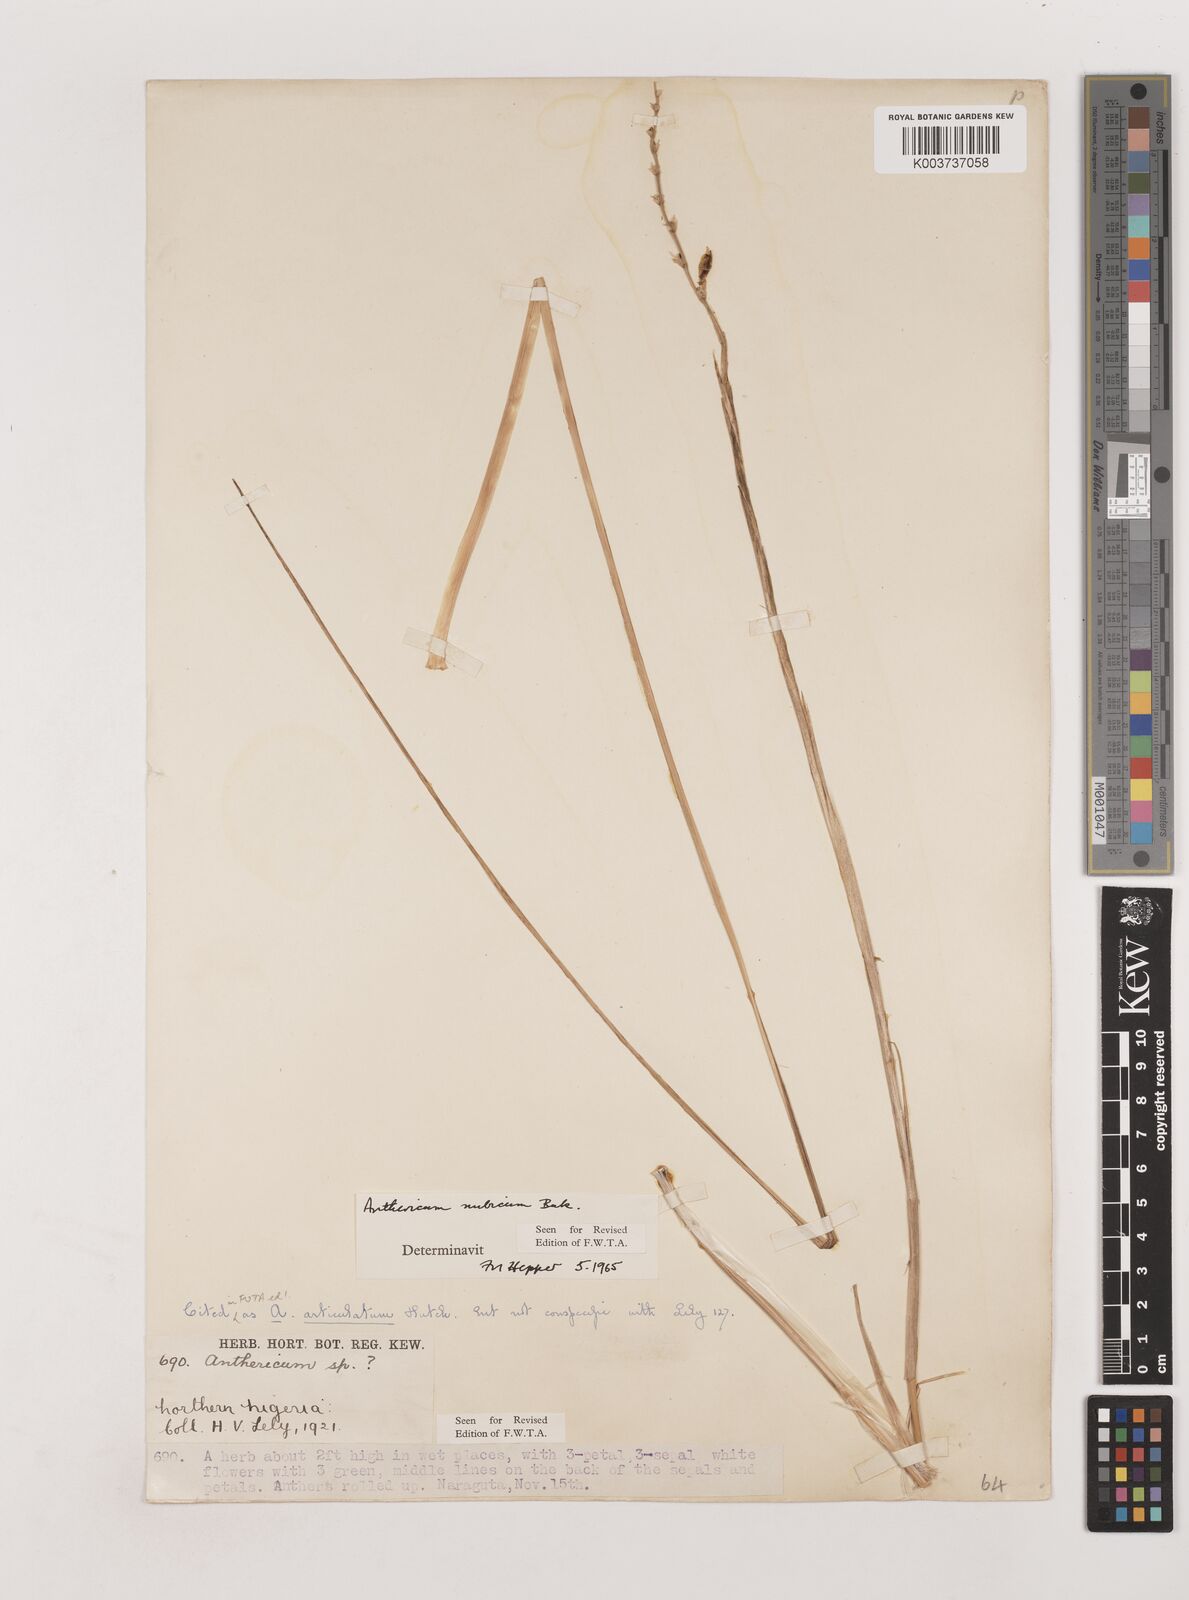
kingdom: Plantae
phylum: Tracheophyta
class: Liliopsida
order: Asparagales
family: Asparagaceae
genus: Chlorophytum
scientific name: Chlorophytum nubicum
